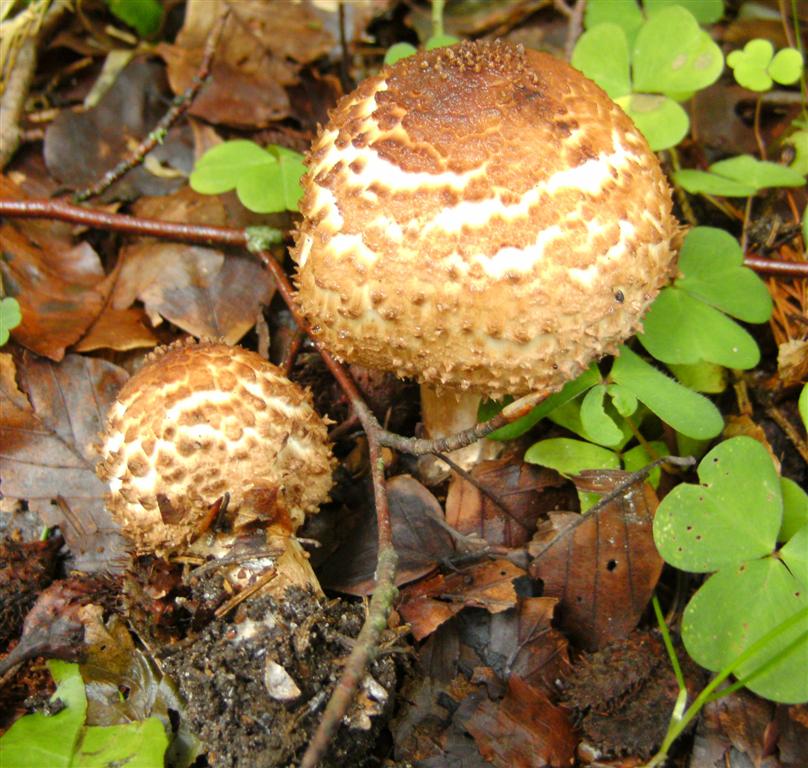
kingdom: Fungi
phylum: Basidiomycota
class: Agaricomycetes
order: Agaricales
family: Agaricaceae
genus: Echinoderma
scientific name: Echinoderma asperum
